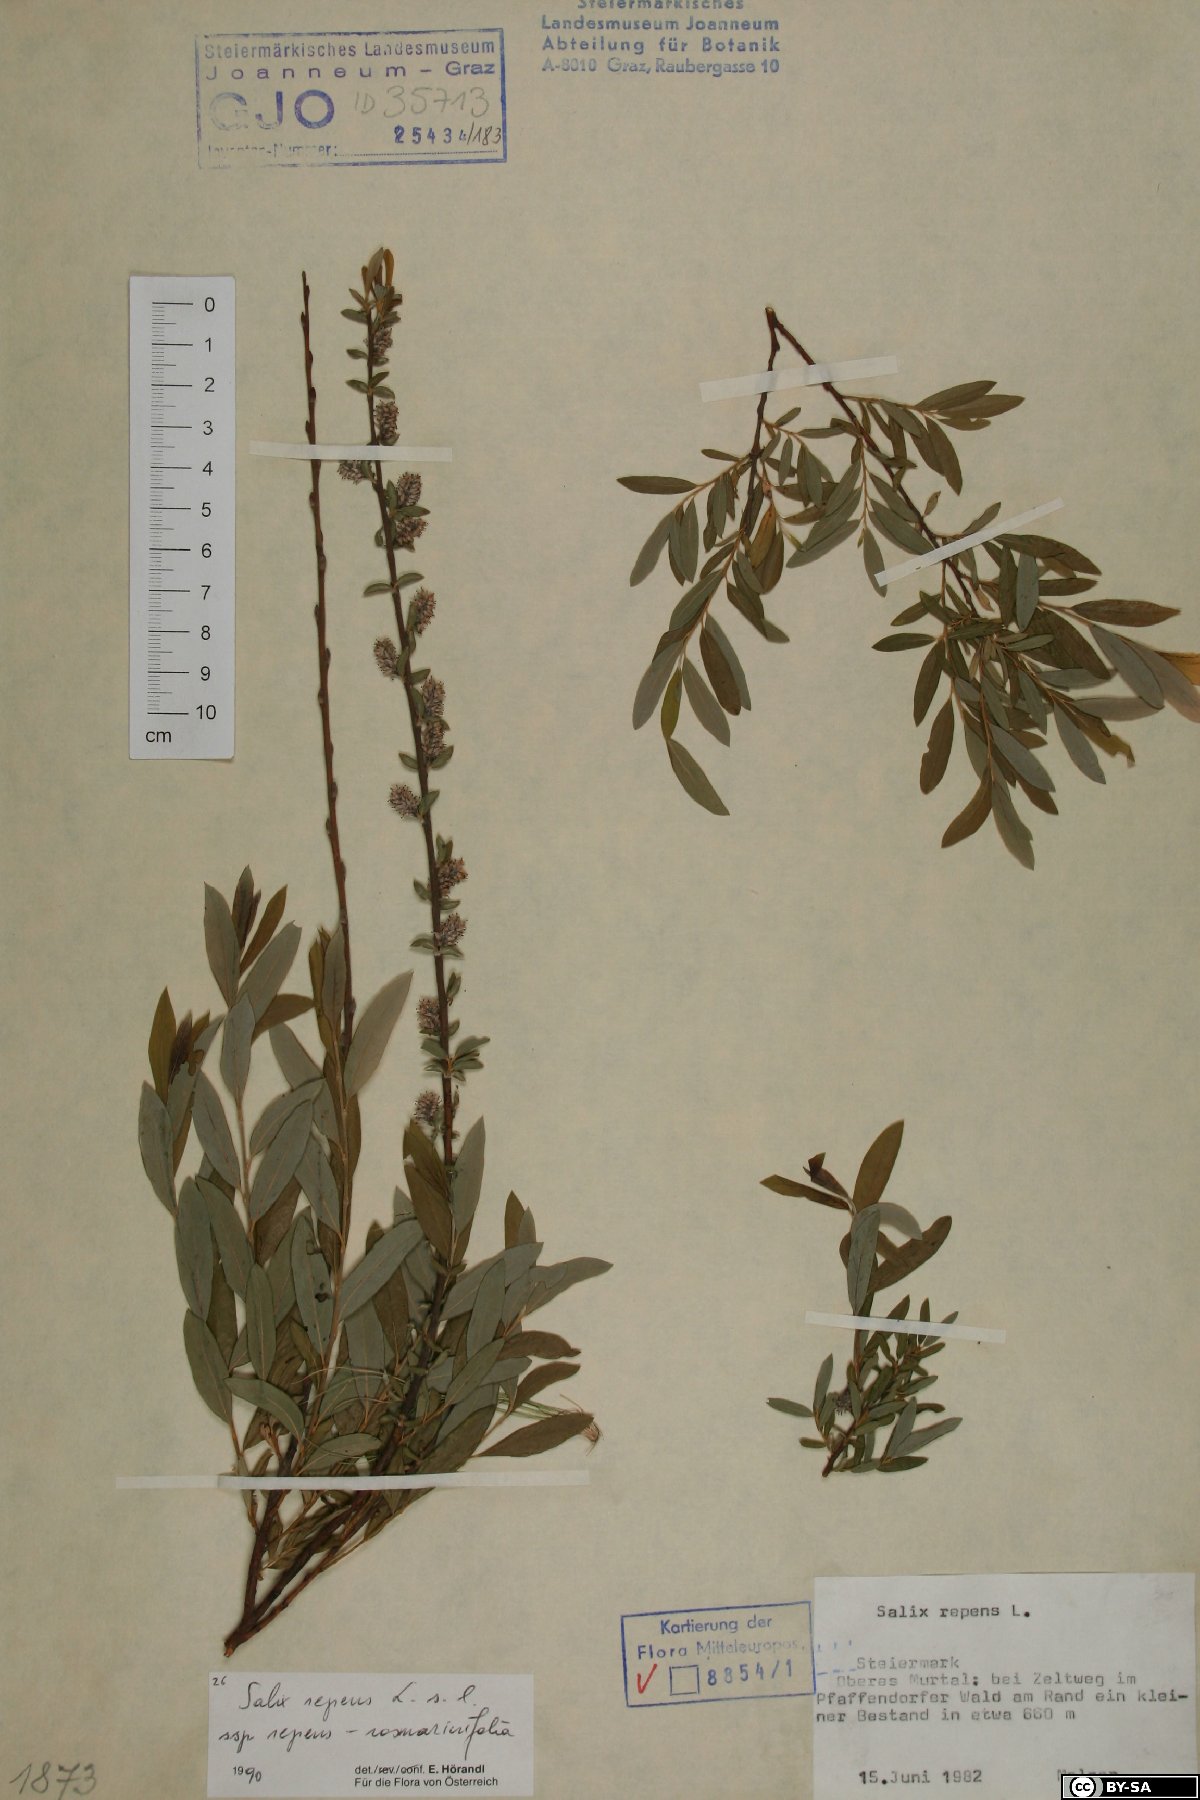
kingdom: Plantae
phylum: Tracheophyta
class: Magnoliopsida
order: Malpighiales
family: Salicaceae
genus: Salix
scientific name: Salix repens
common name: Creeping willow
